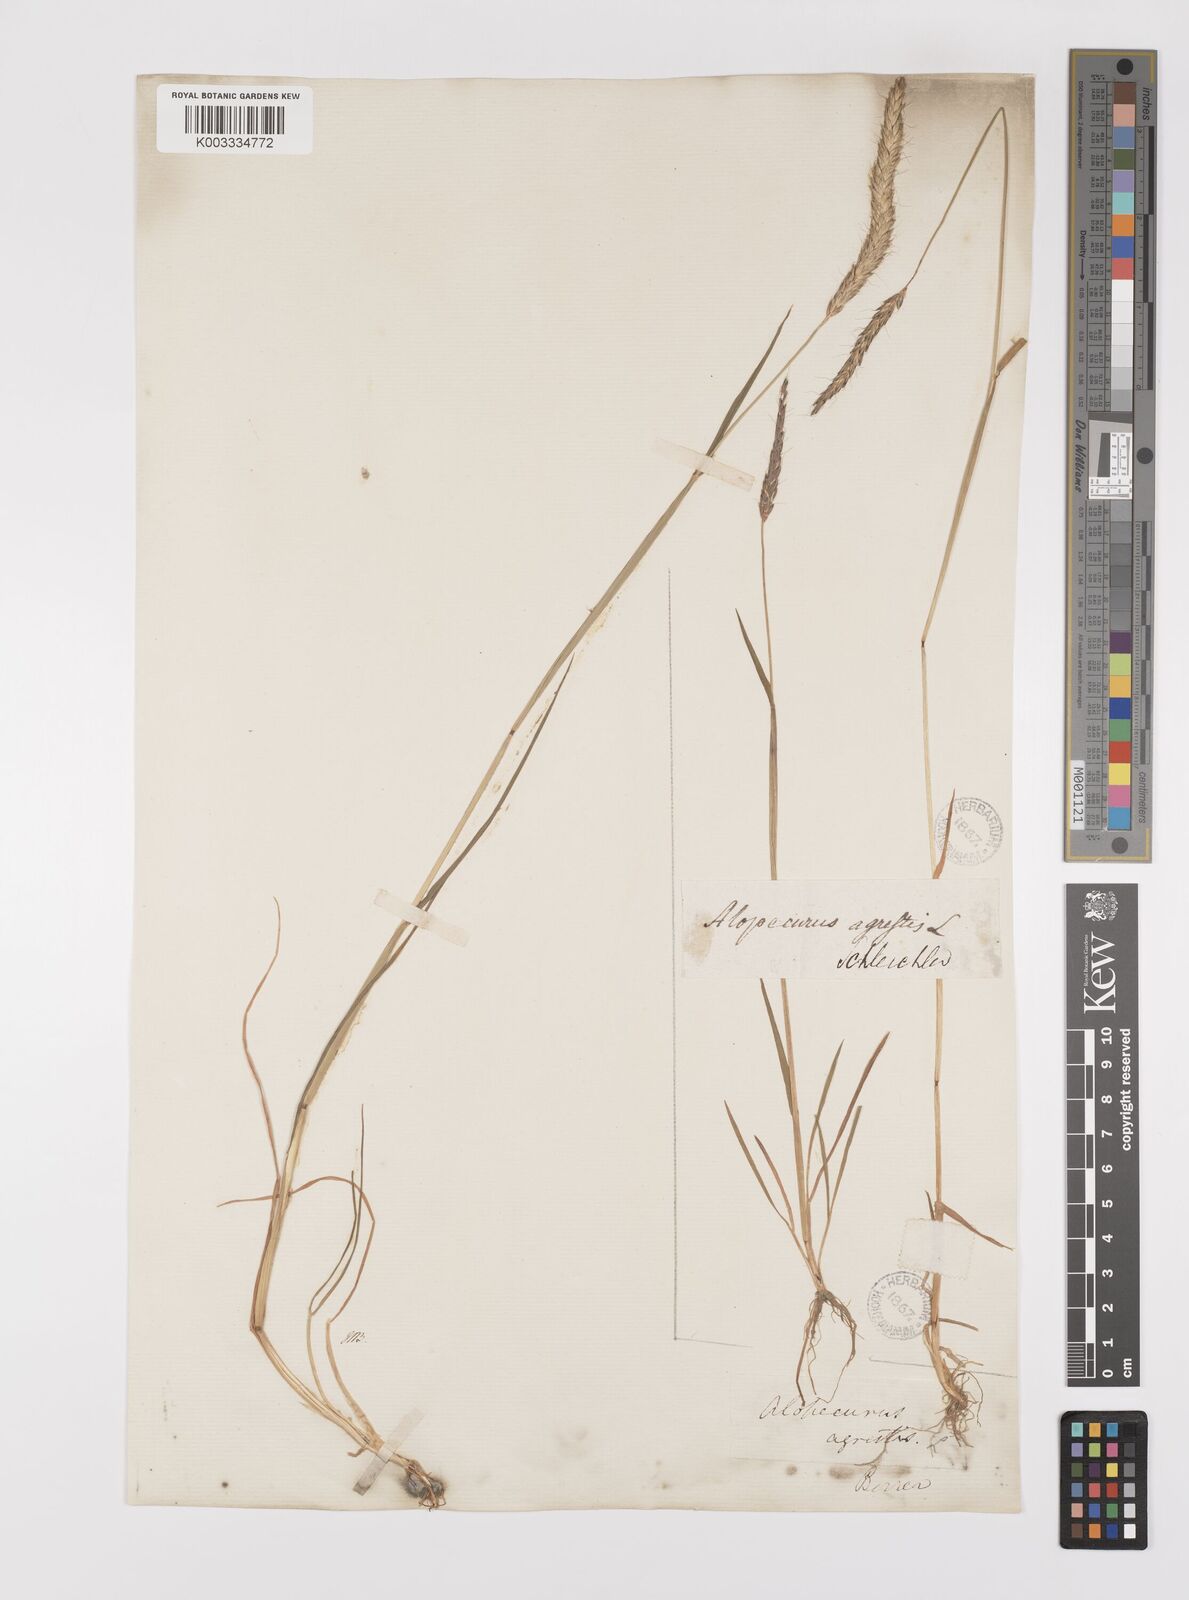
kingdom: Plantae
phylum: Tracheophyta
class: Liliopsida
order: Poales
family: Poaceae
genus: Alopecurus
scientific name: Alopecurus myosuroides
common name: Black-grass
